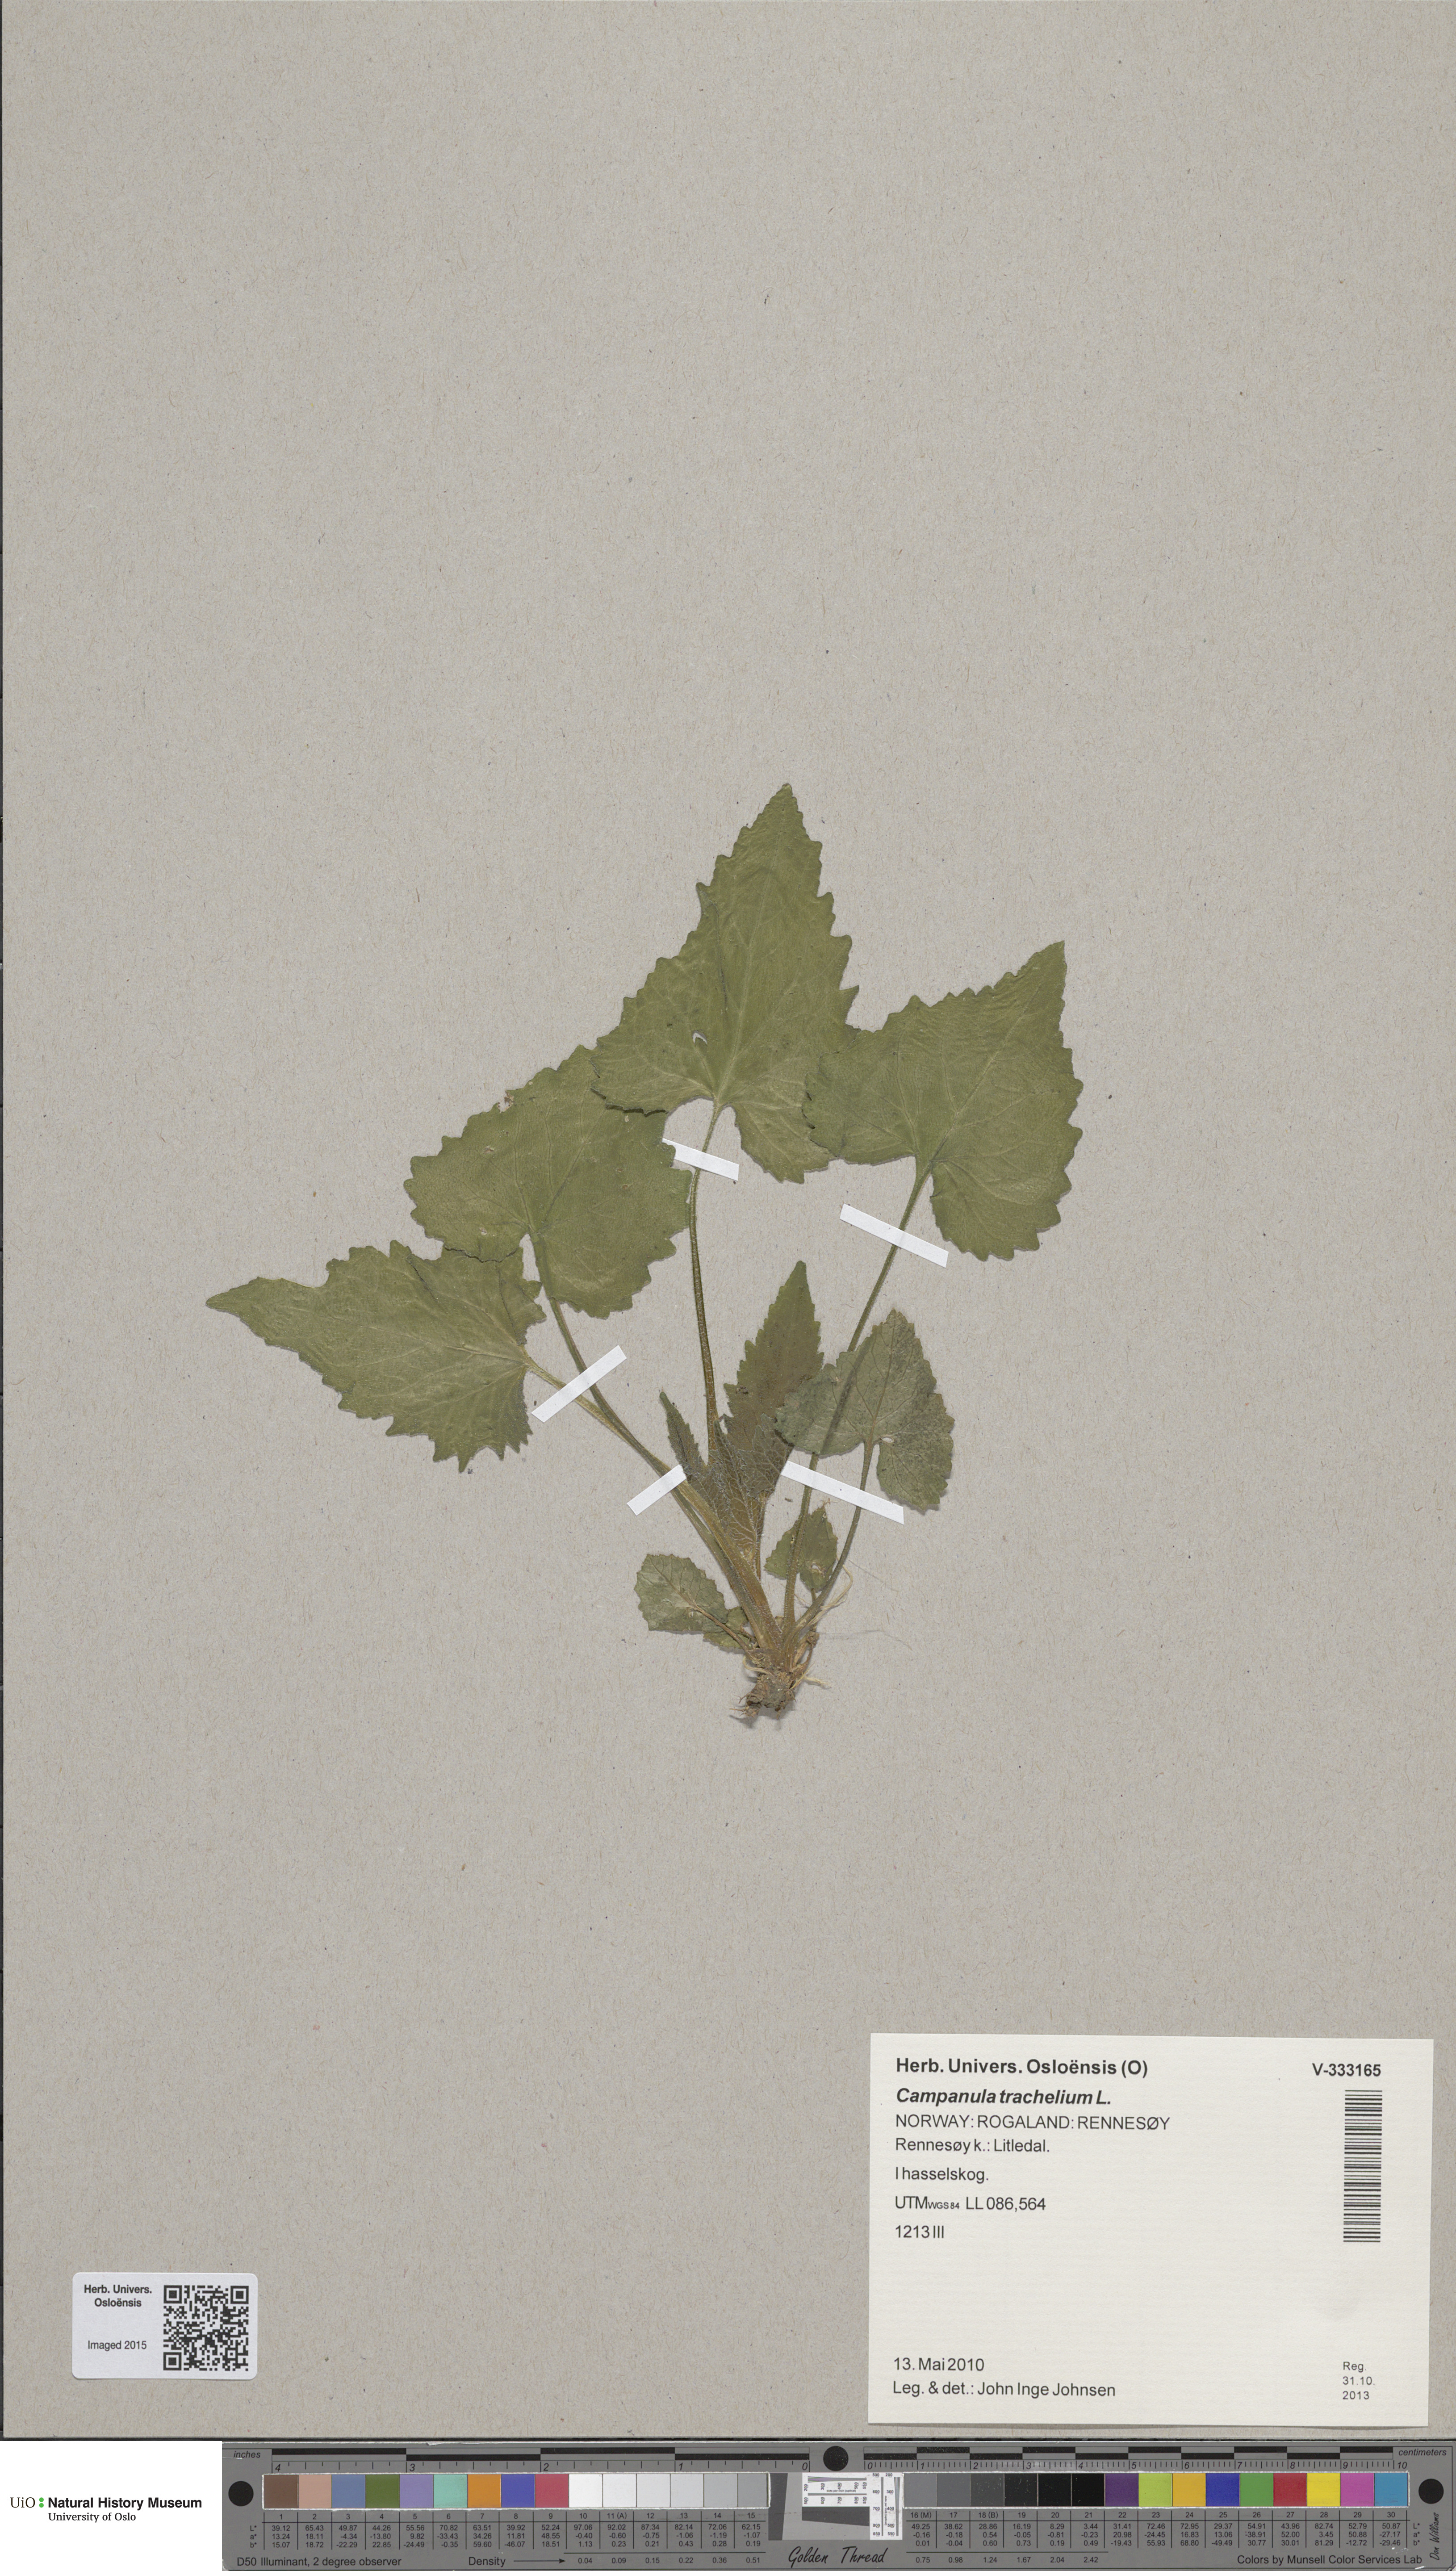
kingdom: Plantae
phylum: Tracheophyta
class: Magnoliopsida
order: Asterales
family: Campanulaceae
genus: Campanula
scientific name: Campanula trachelium
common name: Nettle-leaved bellflower
